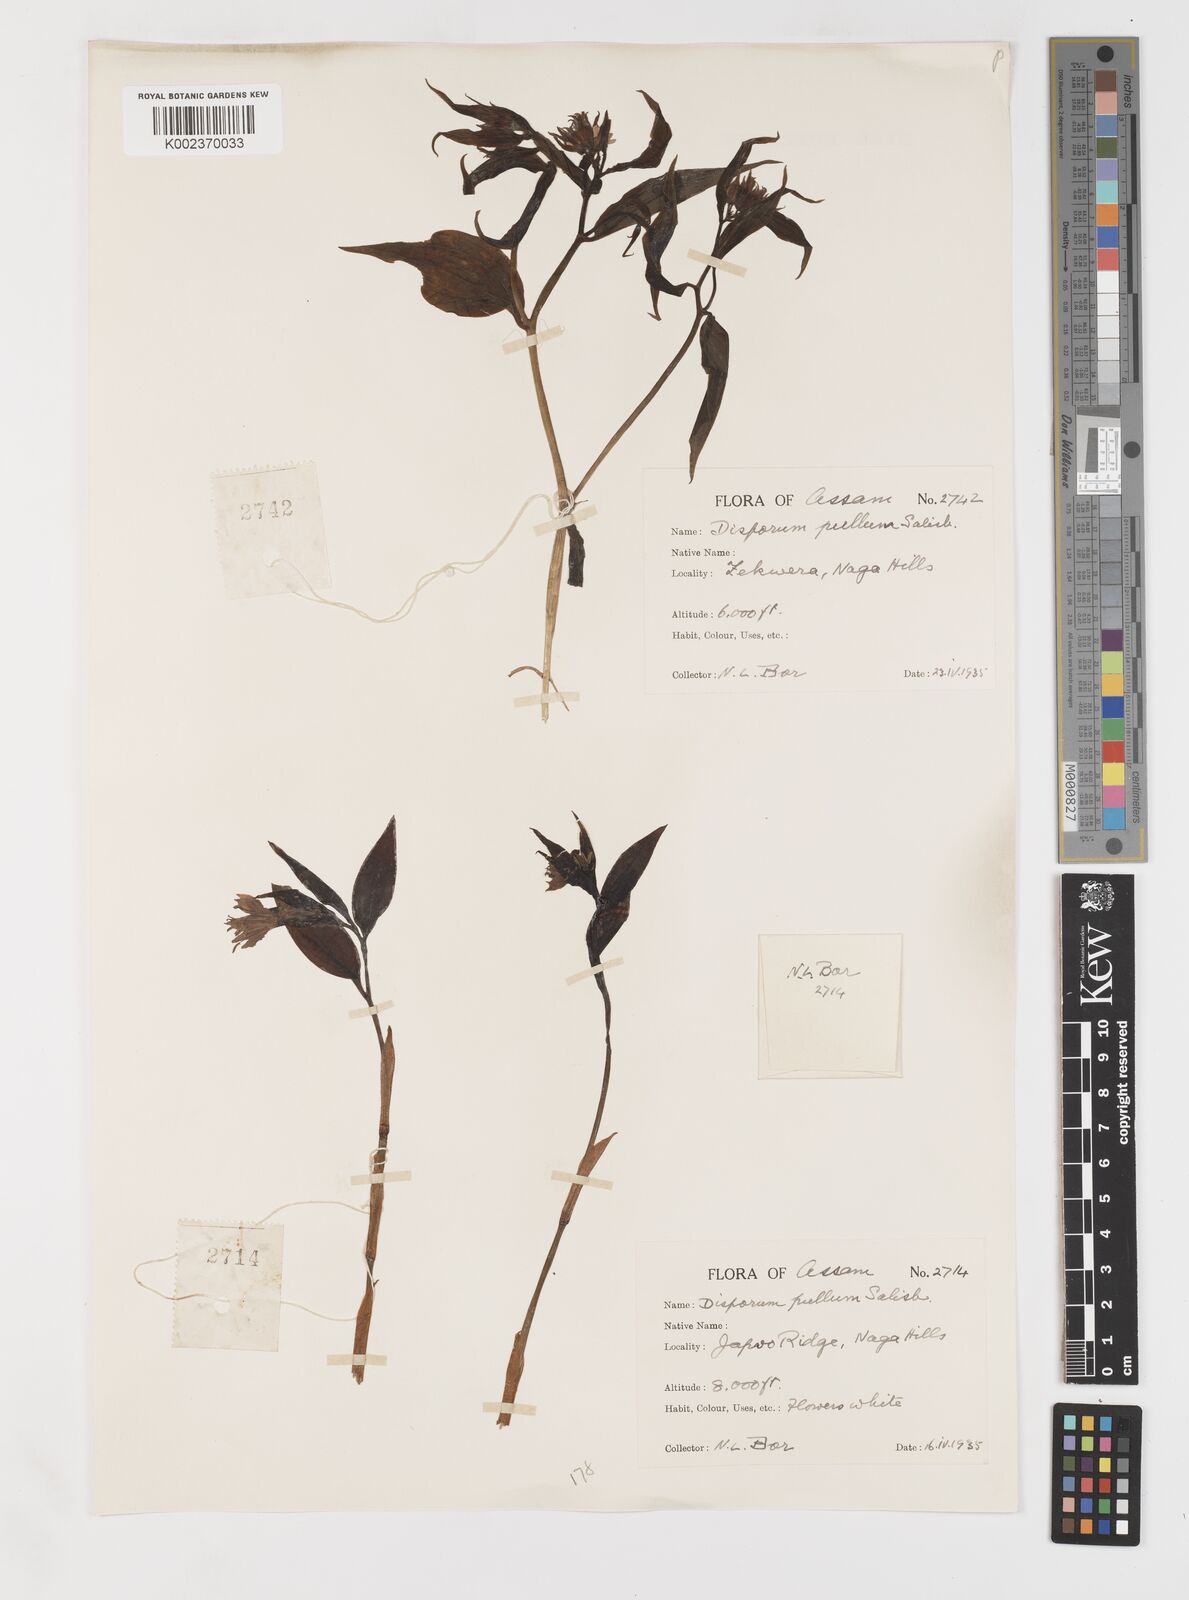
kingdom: Plantae
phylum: Tracheophyta
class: Liliopsida
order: Liliales
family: Colchicaceae
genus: Disporum
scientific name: Disporum cantoniense
